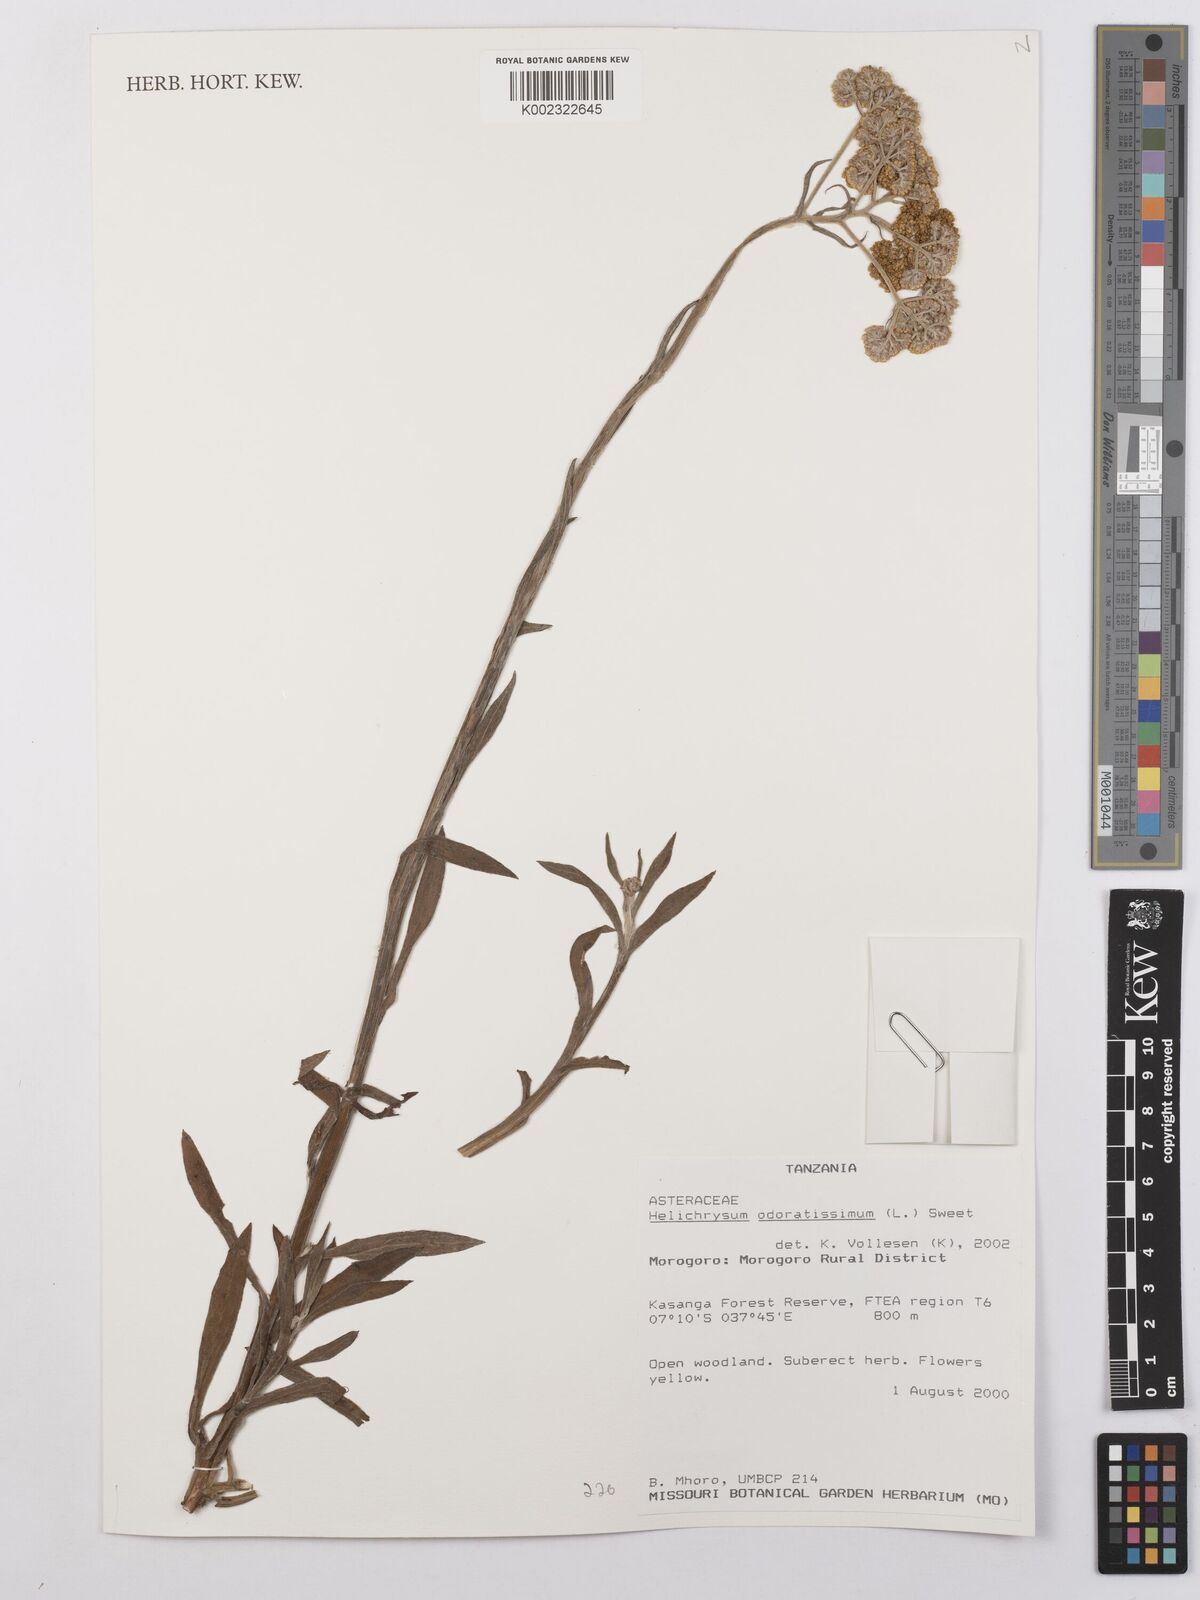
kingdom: Plantae
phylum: Tracheophyta
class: Magnoliopsida
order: Asterales
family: Asteraceae
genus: Helichrysum
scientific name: Helichrysum stenopterum
